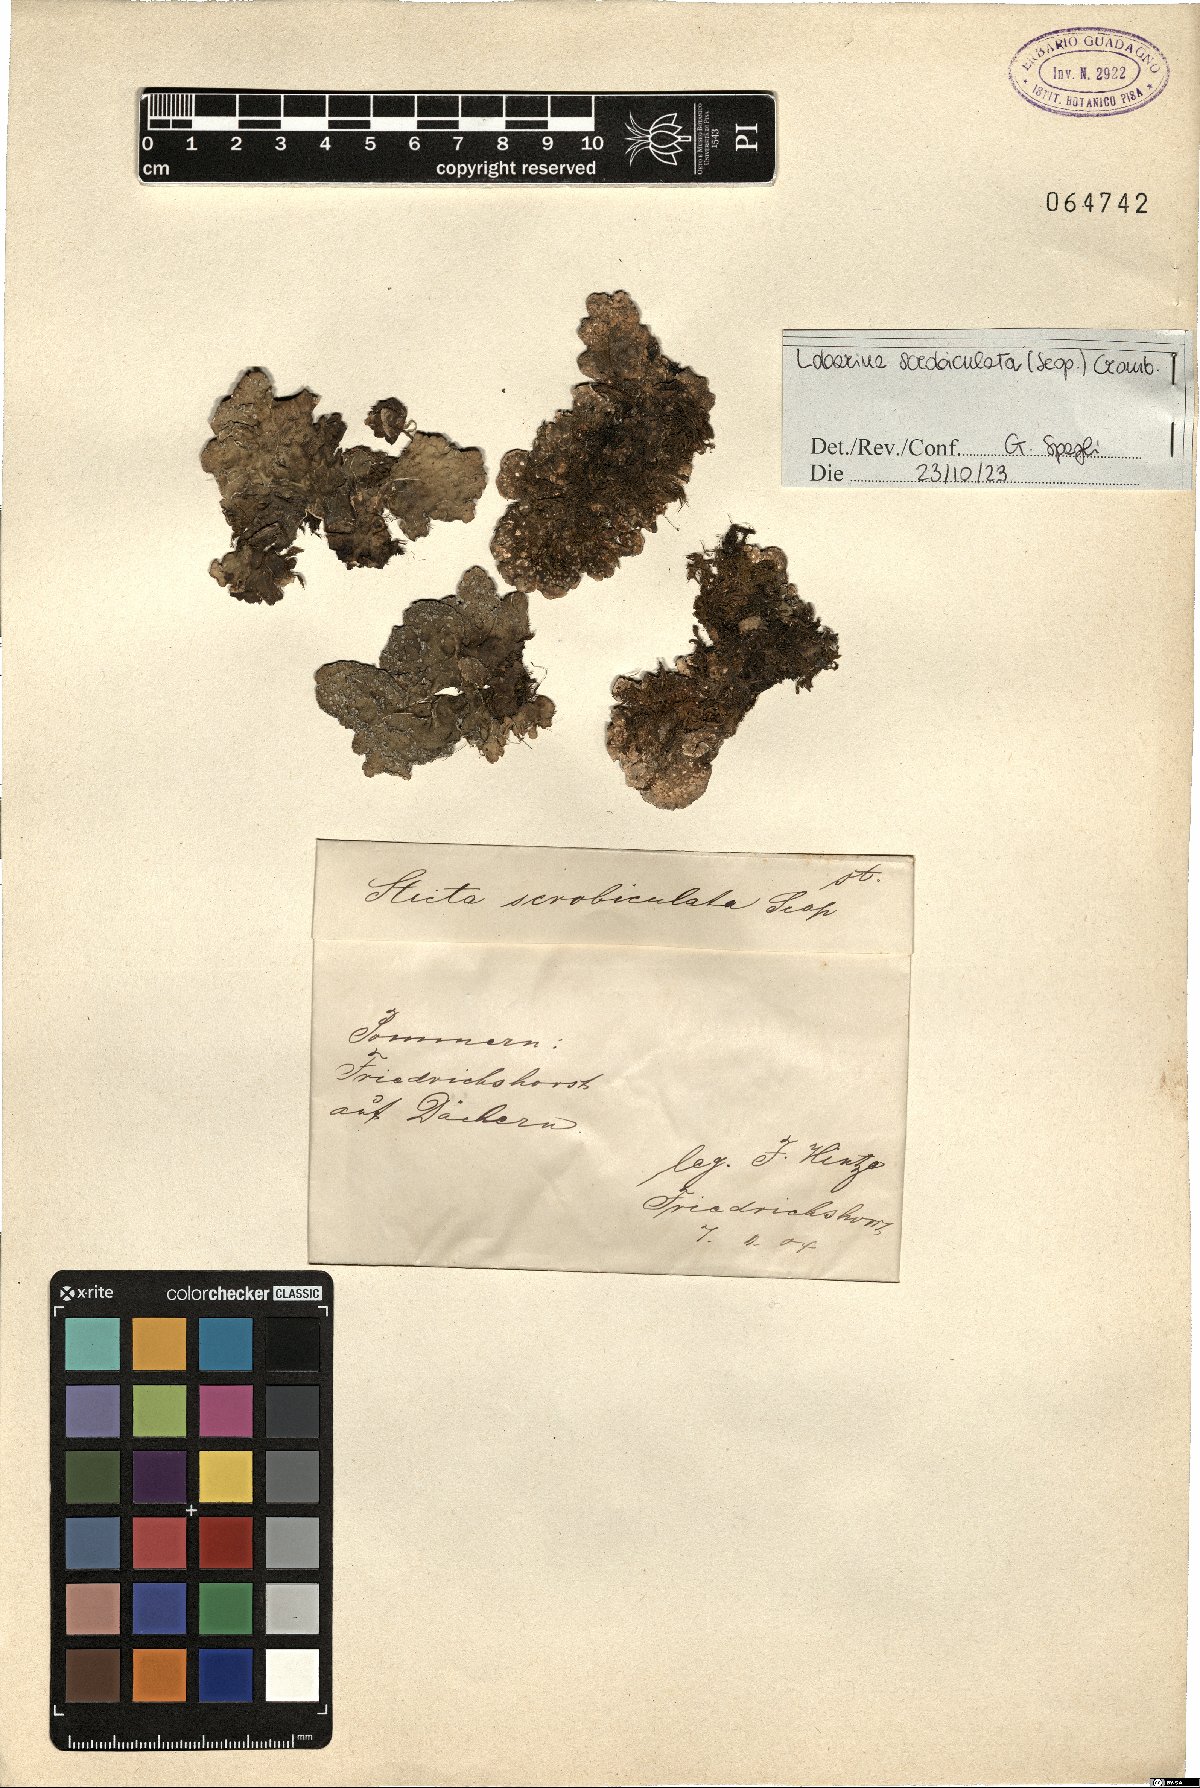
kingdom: Fungi
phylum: Ascomycota
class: Lecanoromycetes
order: Peltigerales
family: Lobariaceae
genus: Lobarina
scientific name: Lobarina scrobiculata
